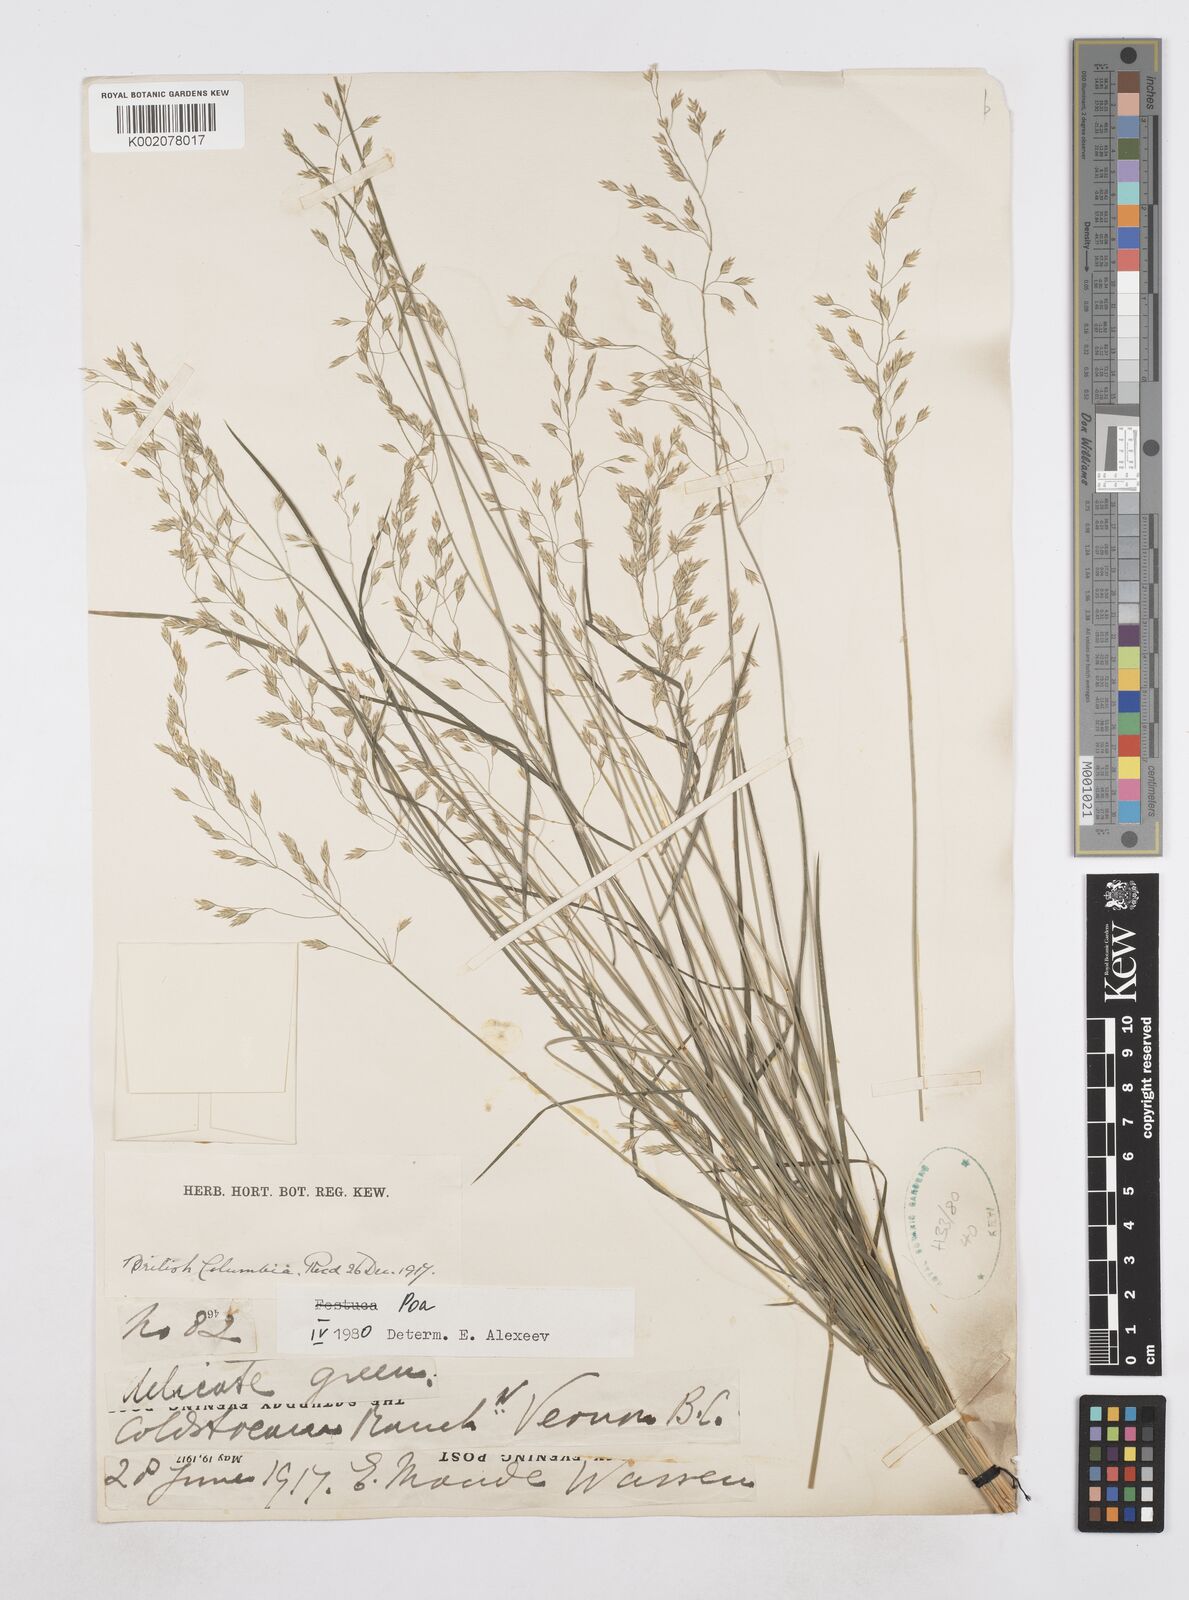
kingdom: Plantae
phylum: Tracheophyta
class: Liliopsida
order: Poales
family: Poaceae
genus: Poa
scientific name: Poa
